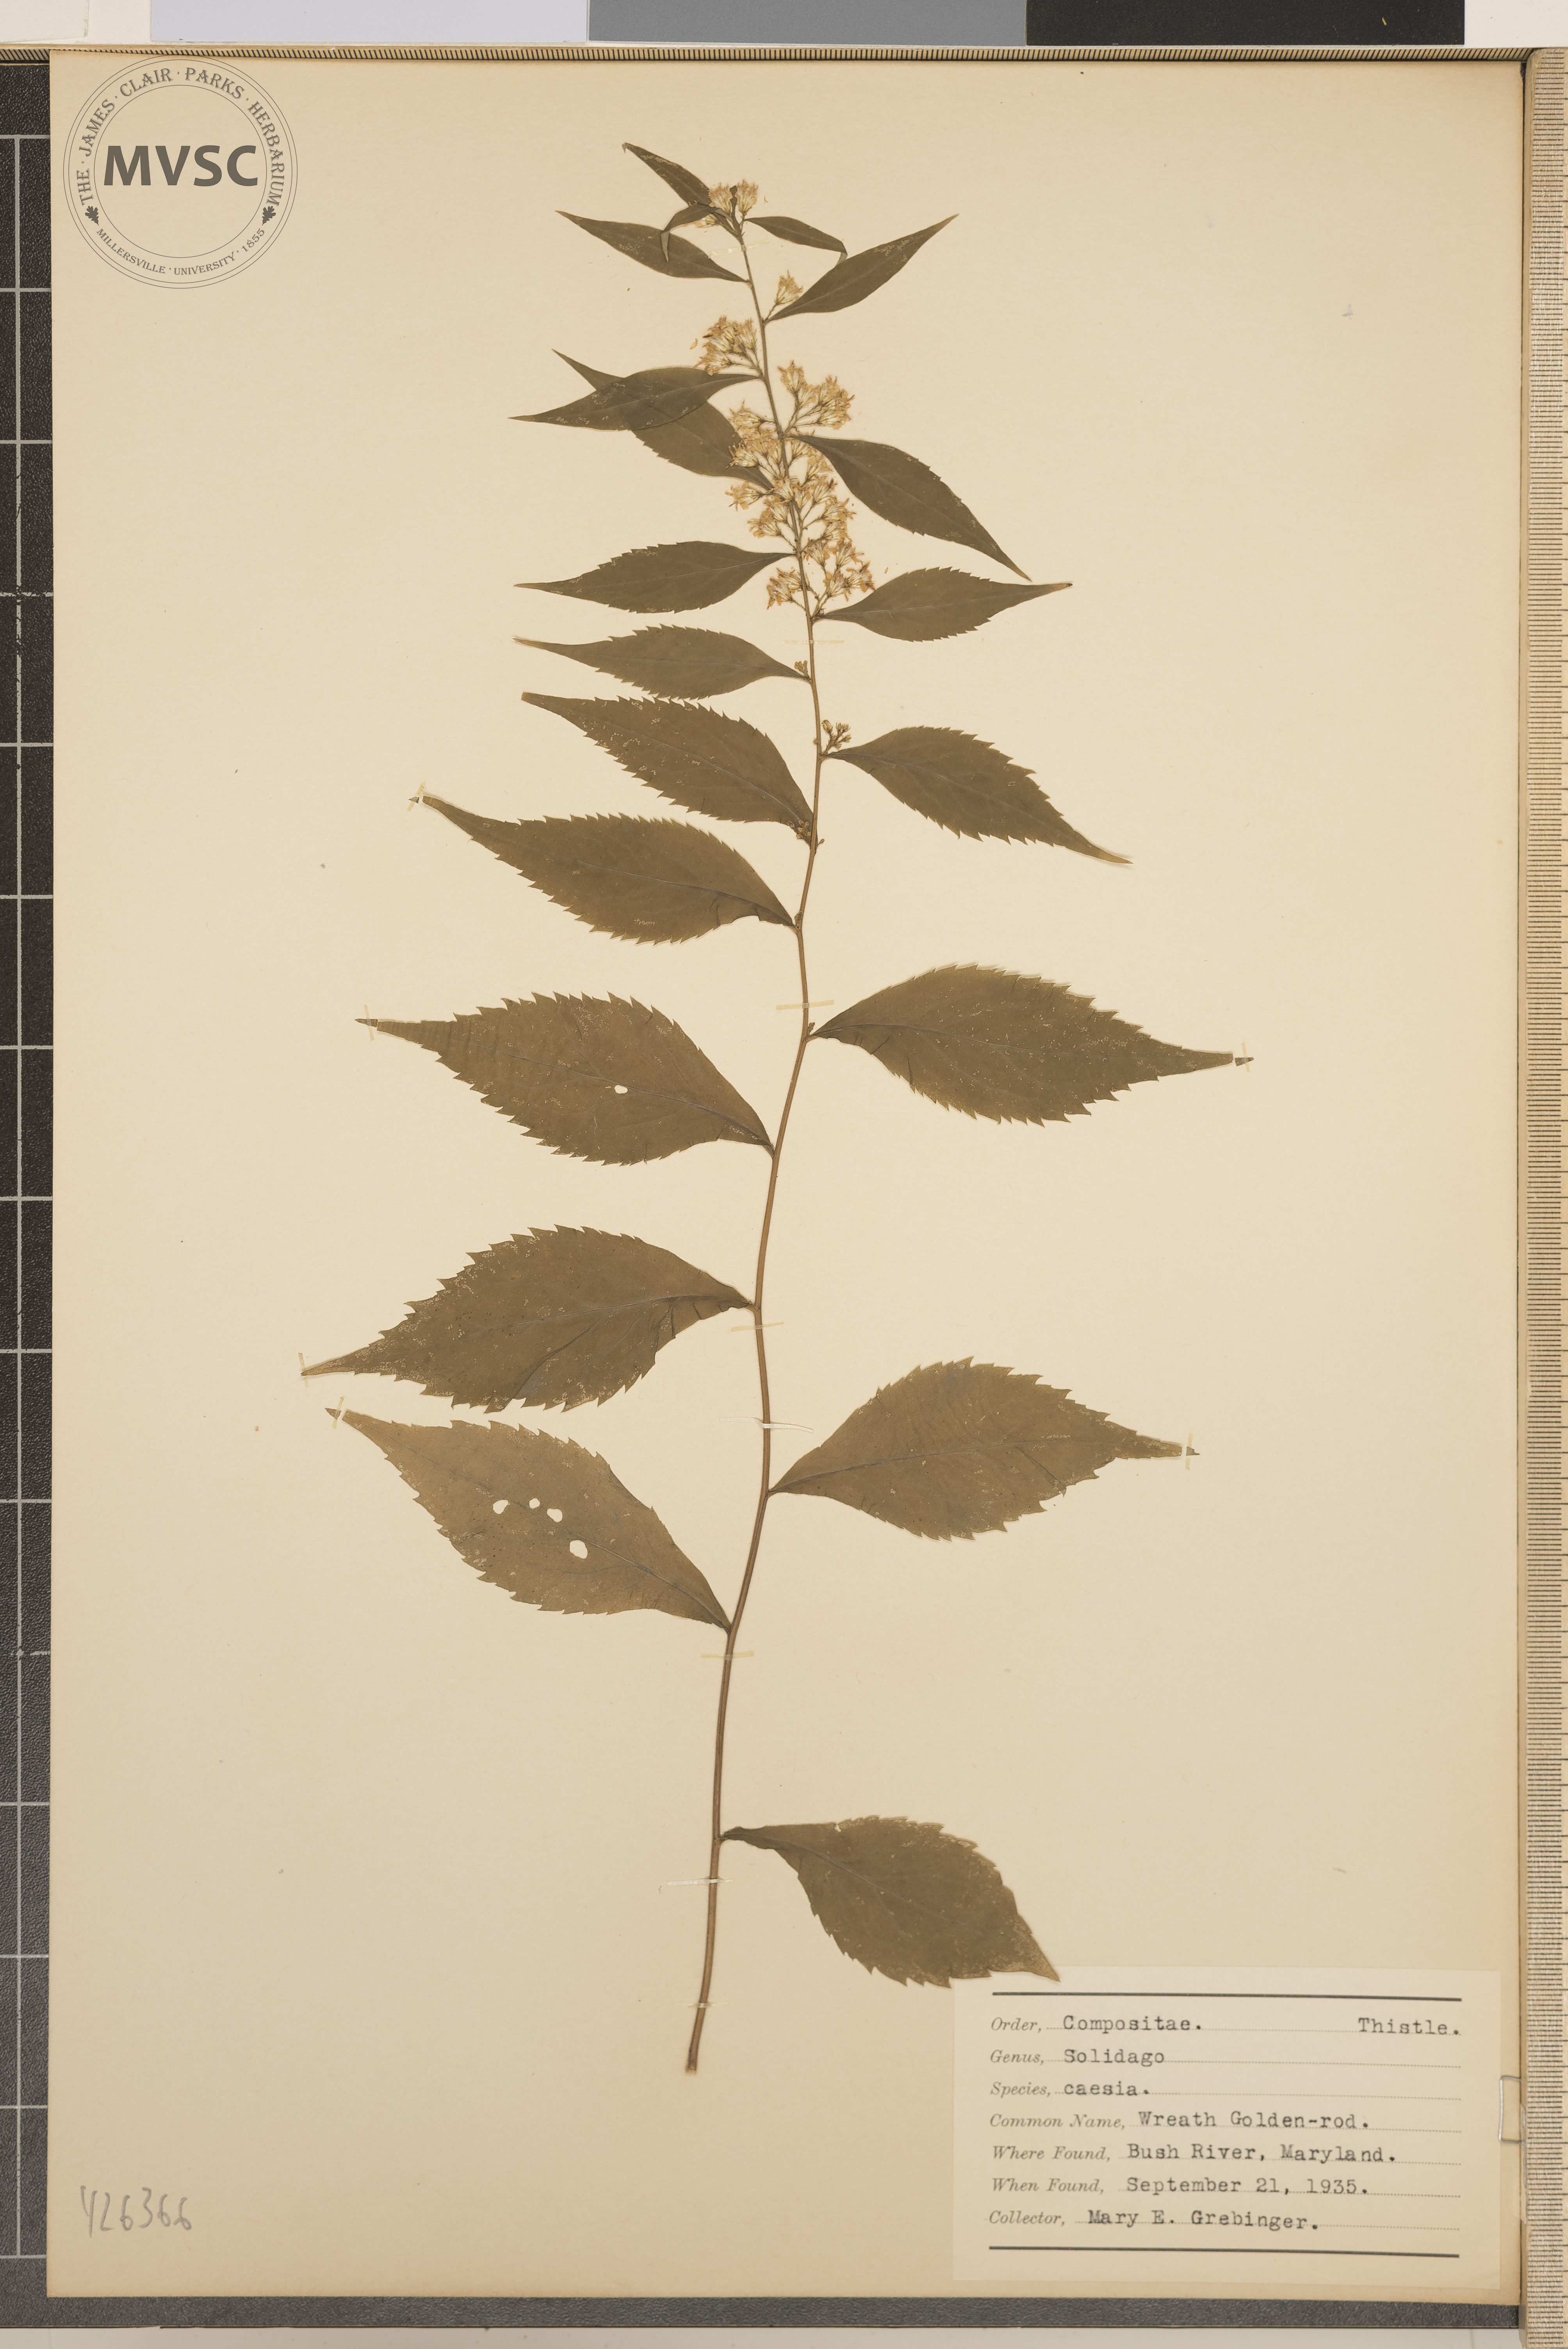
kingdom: Plantae
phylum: Tracheophyta
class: Magnoliopsida
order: Asterales
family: Asteraceae
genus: Solidago
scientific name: Solidago caesia
